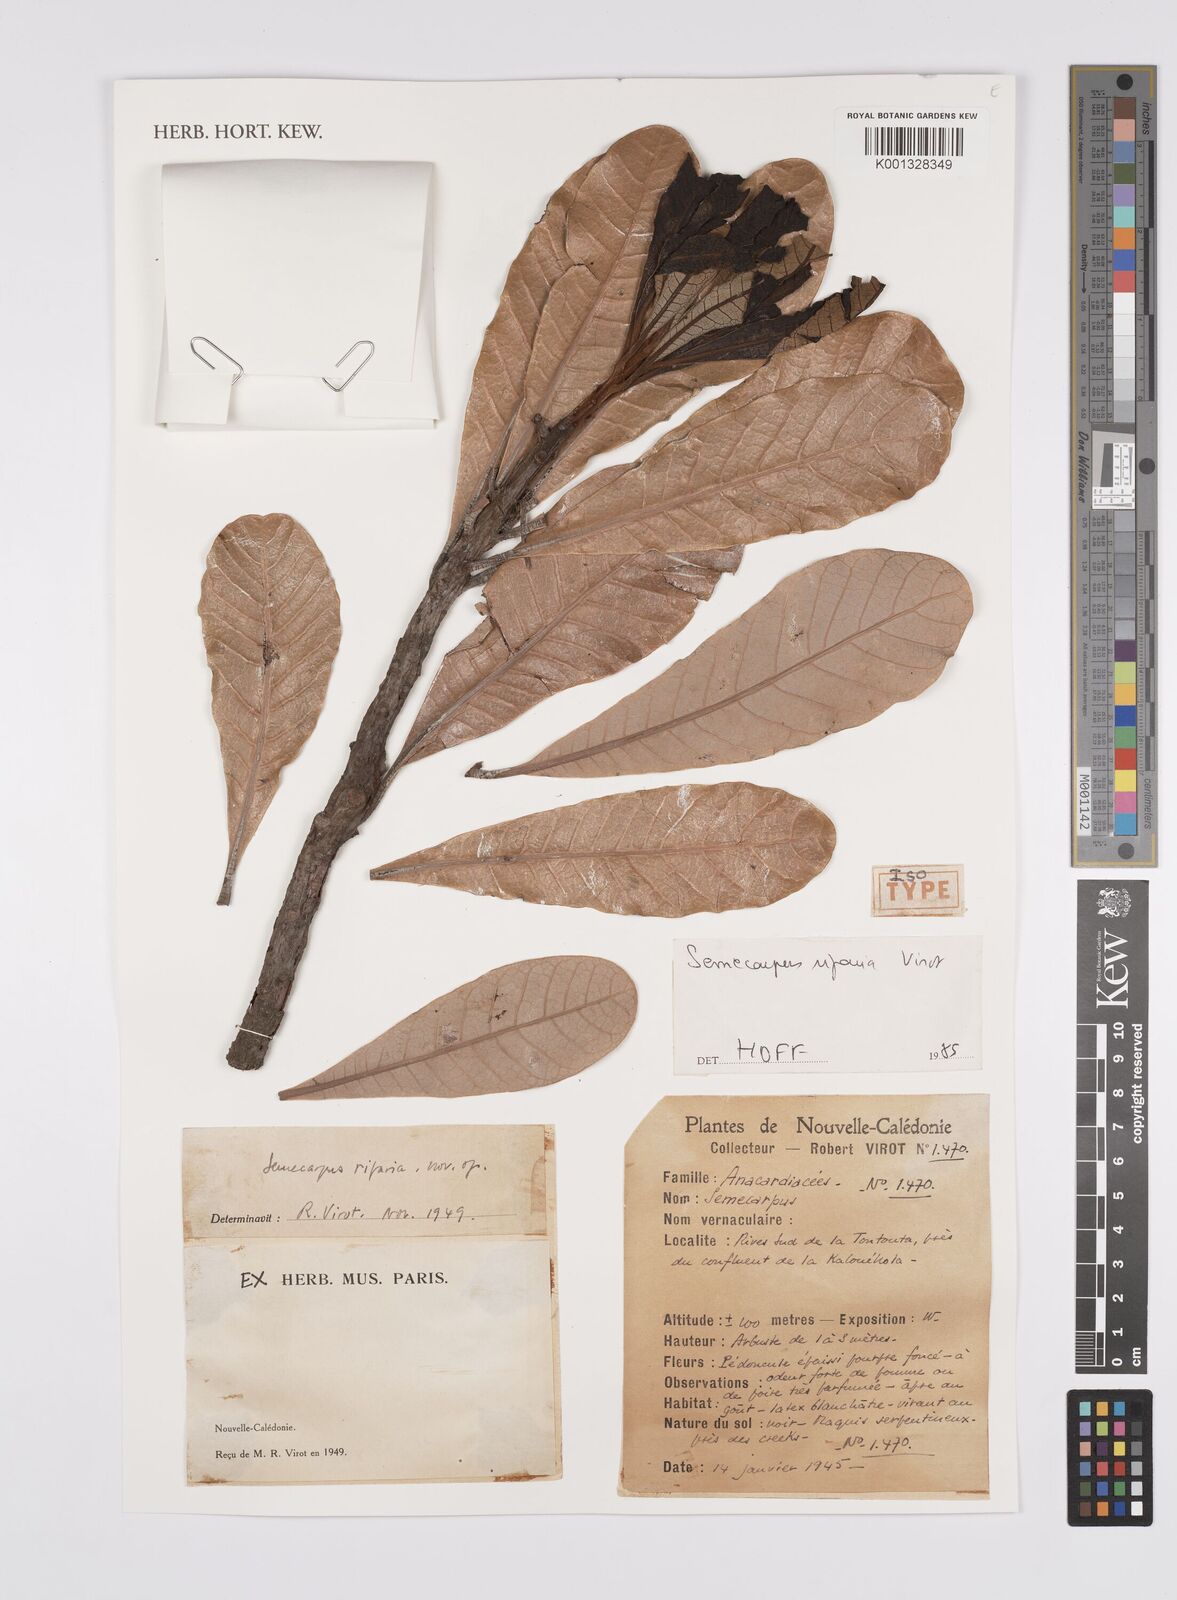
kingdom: Plantae
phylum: Tracheophyta
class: Magnoliopsida
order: Sapindales
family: Anacardiaceae
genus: Semecarpus
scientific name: Semecarpus riparius
